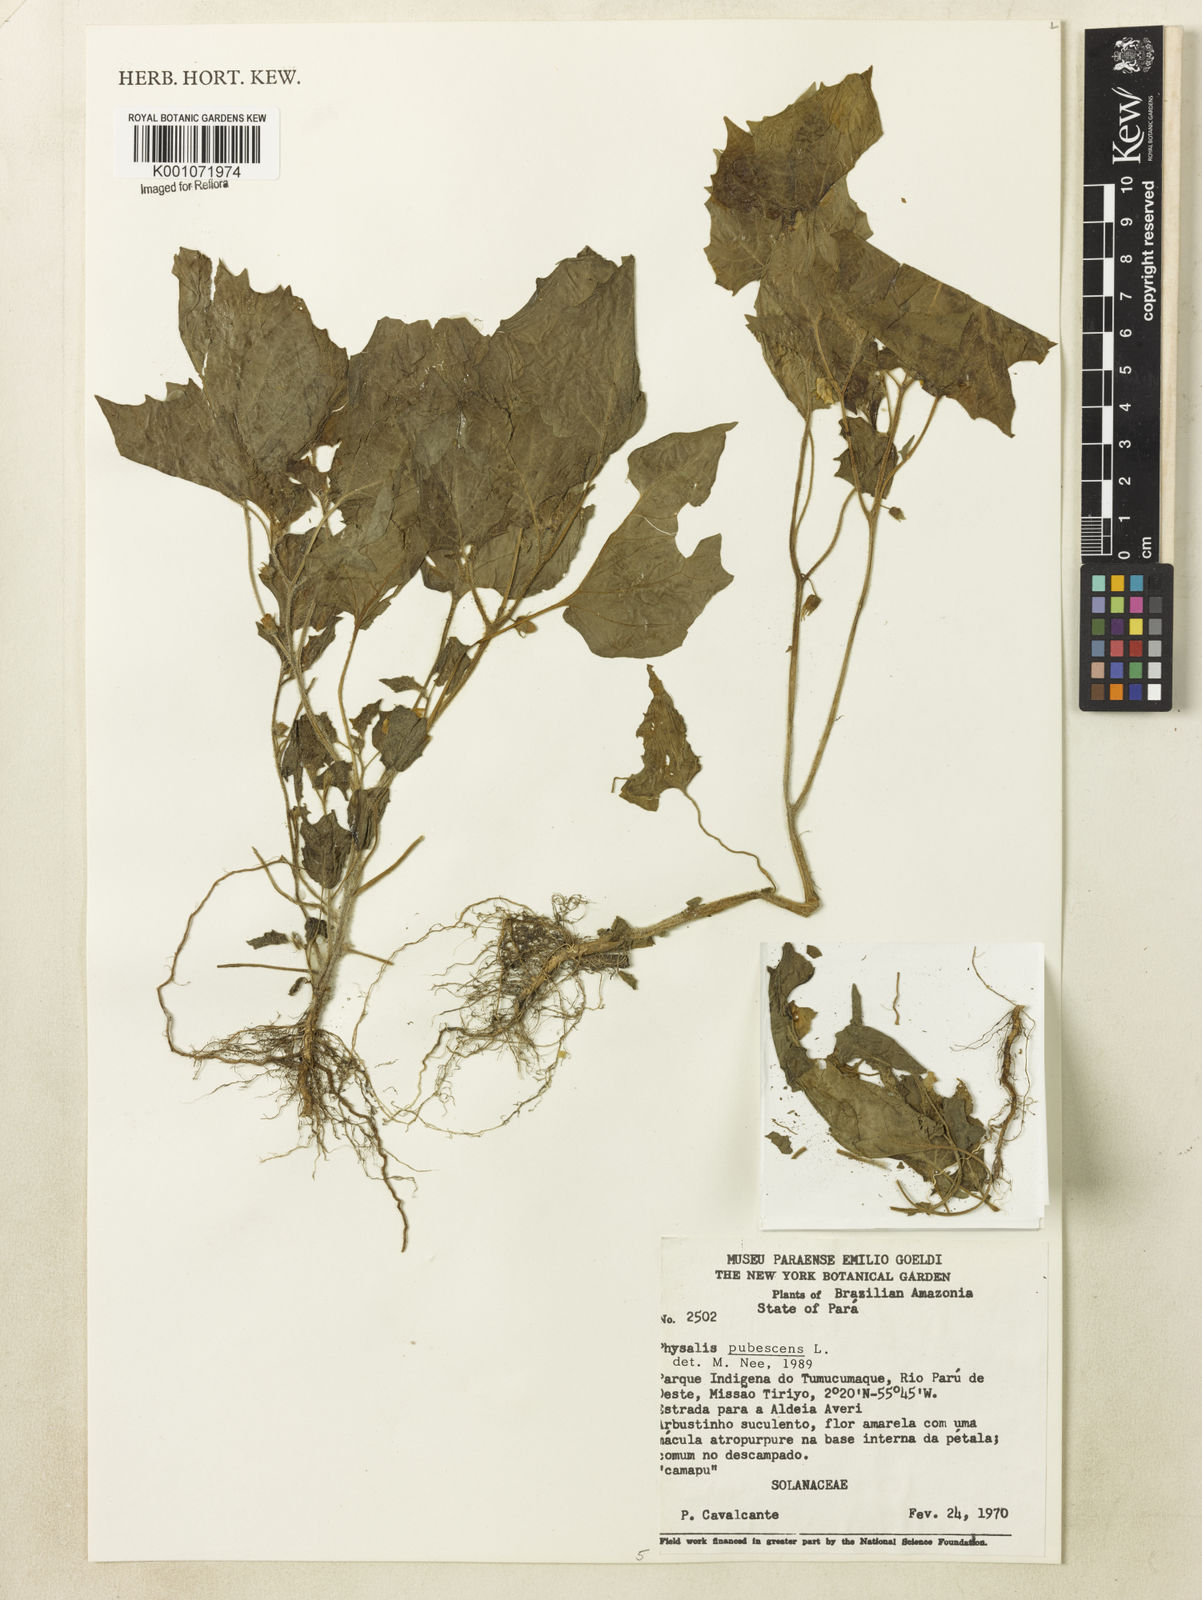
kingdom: Plantae
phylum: Tracheophyta
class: Magnoliopsida
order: Solanales
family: Solanaceae
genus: Physalis
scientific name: Physalis pubescens
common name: Downy ground-cherry
